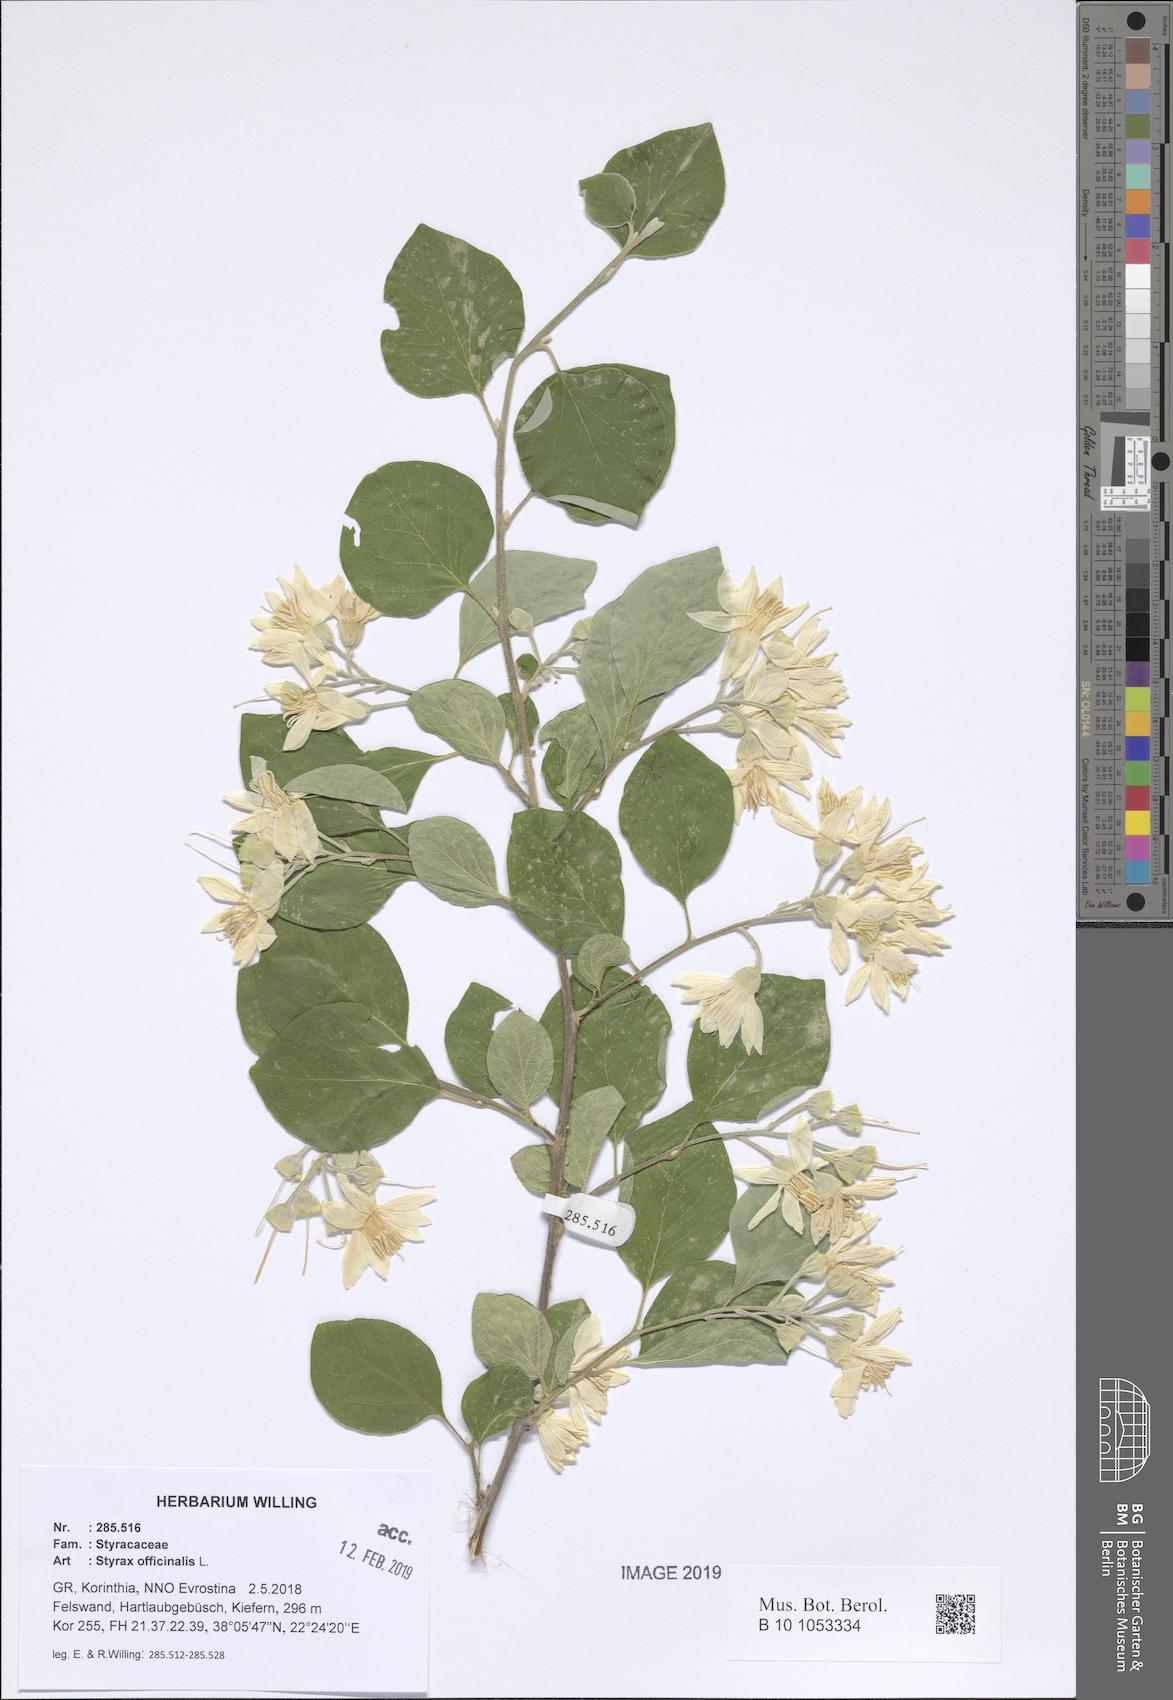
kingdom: Plantae
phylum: Tracheophyta
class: Magnoliopsida
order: Ericales
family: Styracaceae
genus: Styrax
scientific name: Styrax officinalis
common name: Storax
